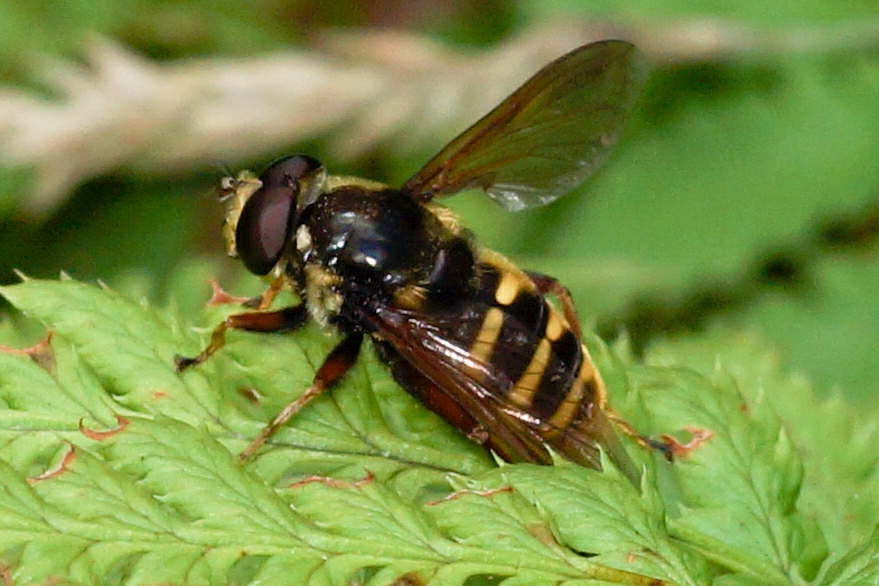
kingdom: Animalia
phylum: Arthropoda
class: Insecta
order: Diptera
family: Syrphidae
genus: Sericomyia
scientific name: Sericomyia silentis
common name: Tørve-silkesvirreflue
